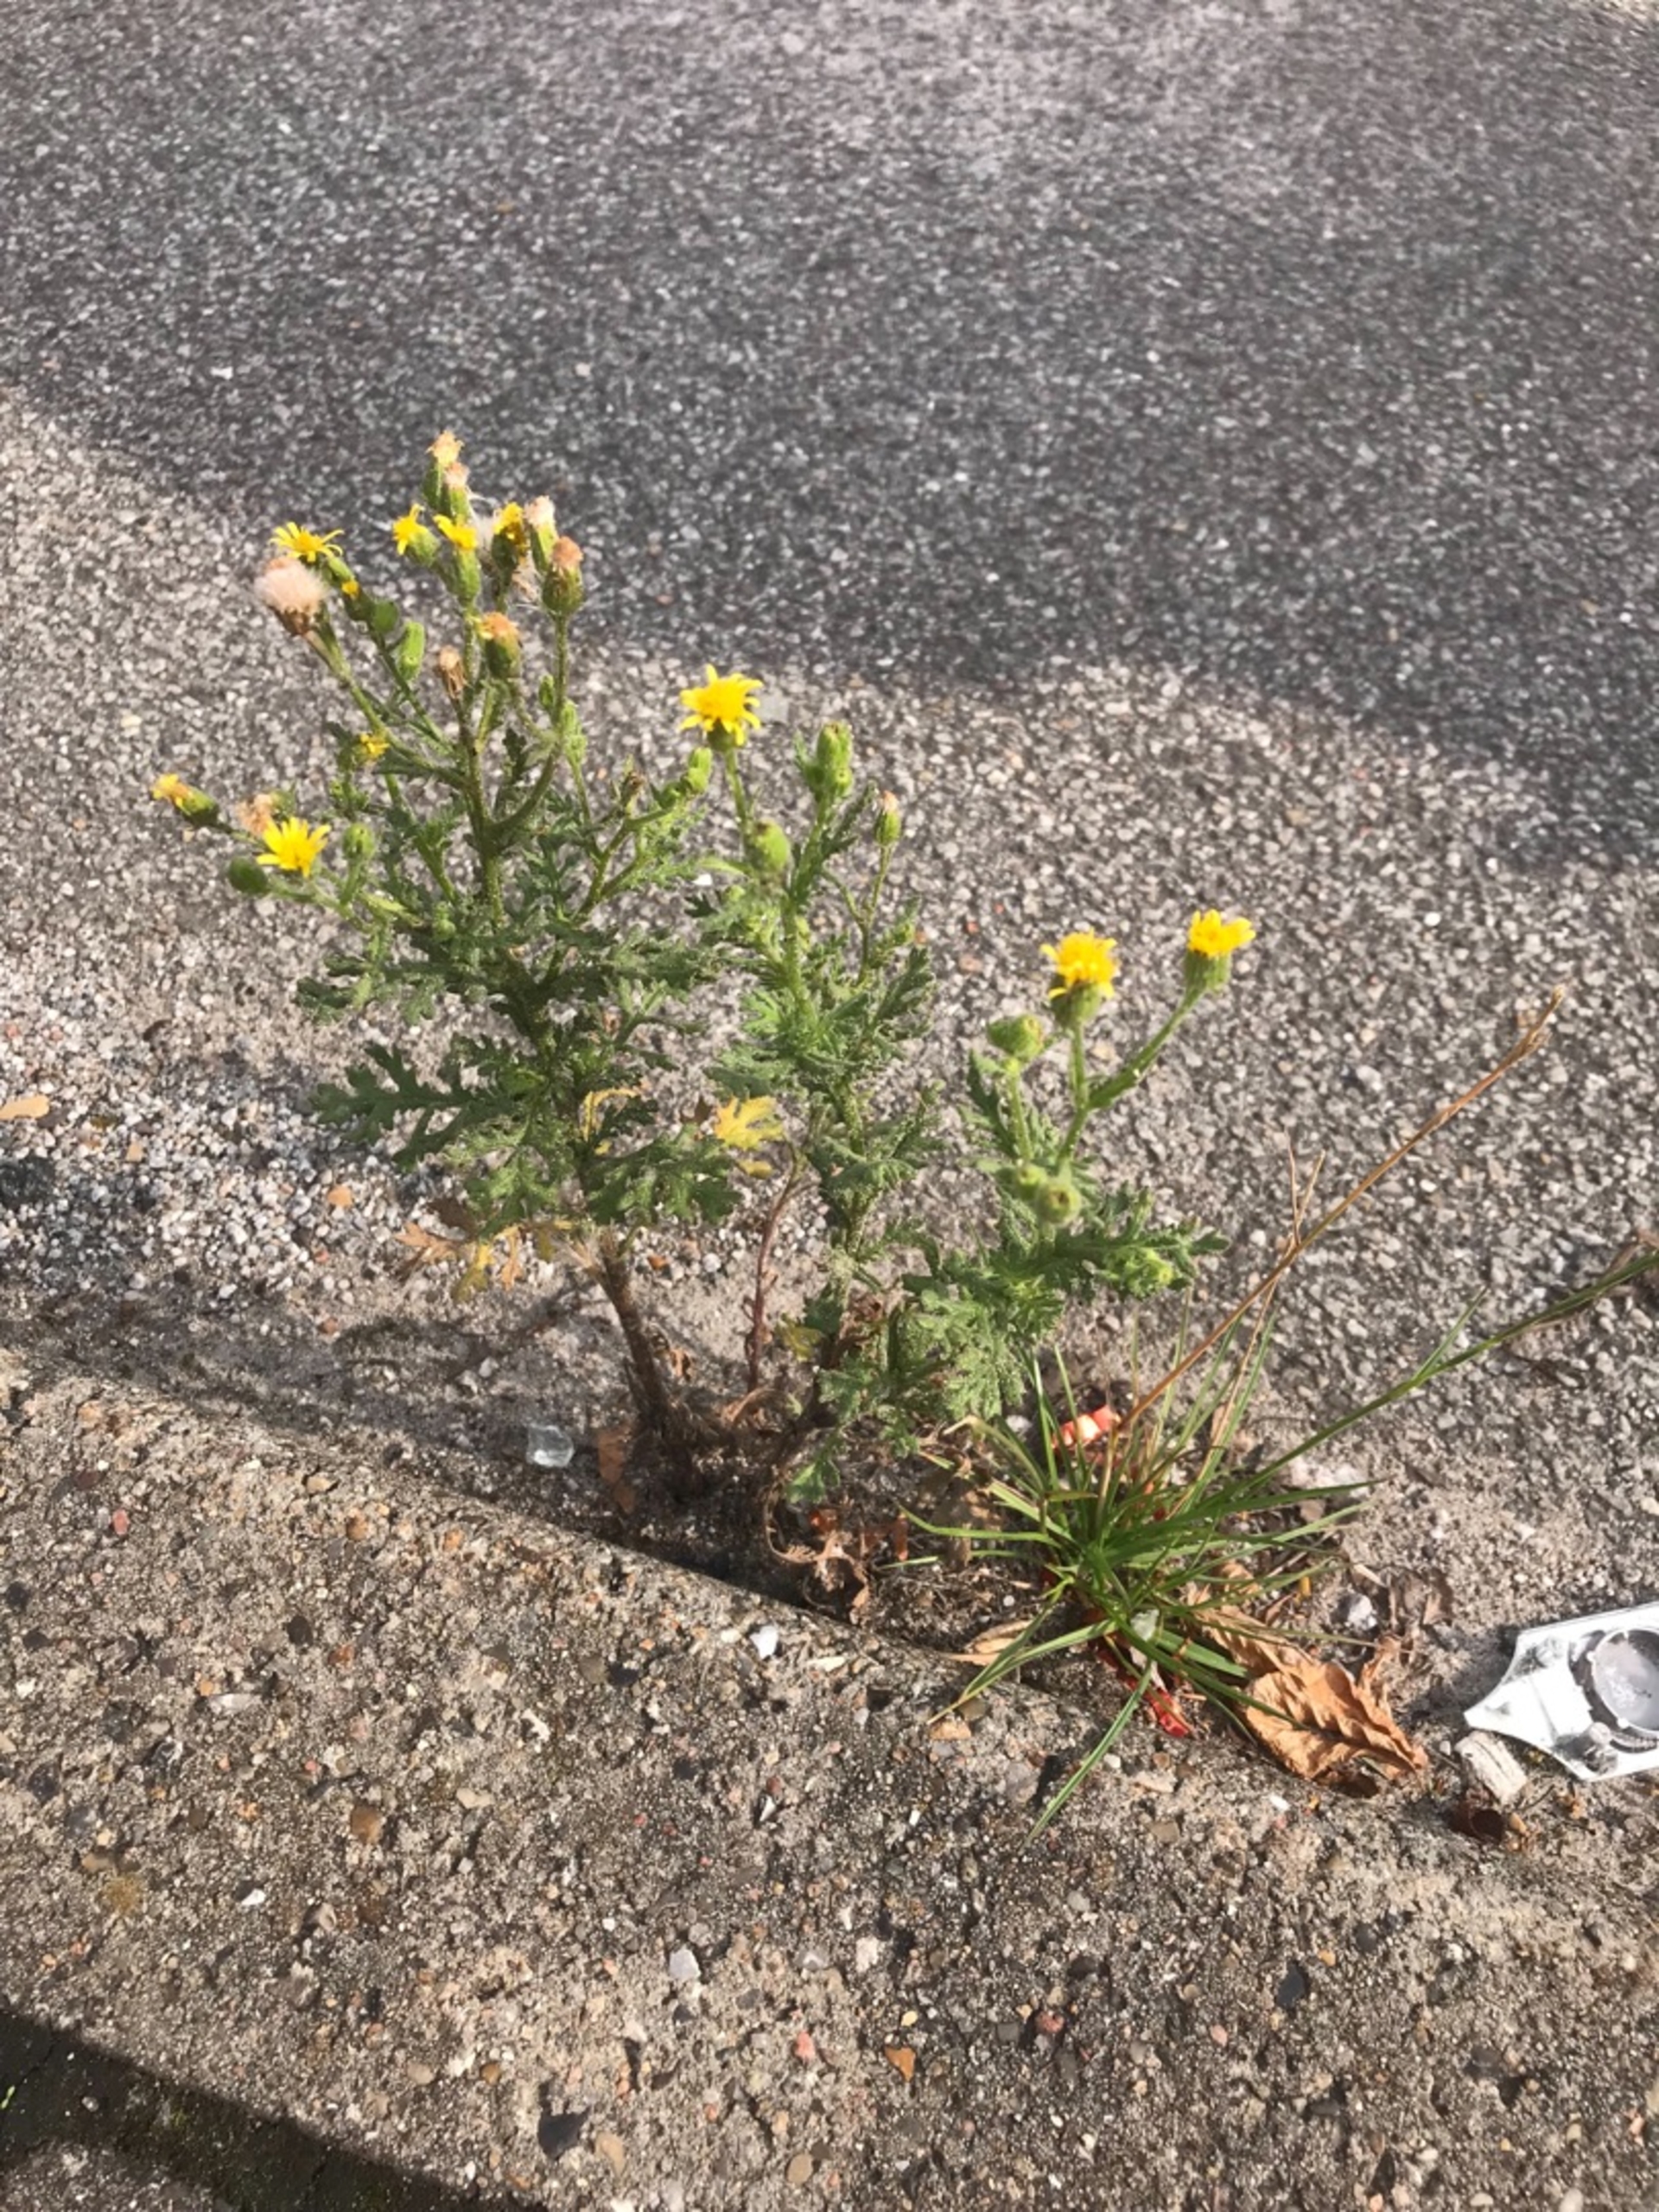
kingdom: Plantae
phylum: Tracheophyta
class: Magnoliopsida
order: Asterales
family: Asteraceae
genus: Senecio
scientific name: Senecio viscosus
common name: Klæbrig brandbæger
